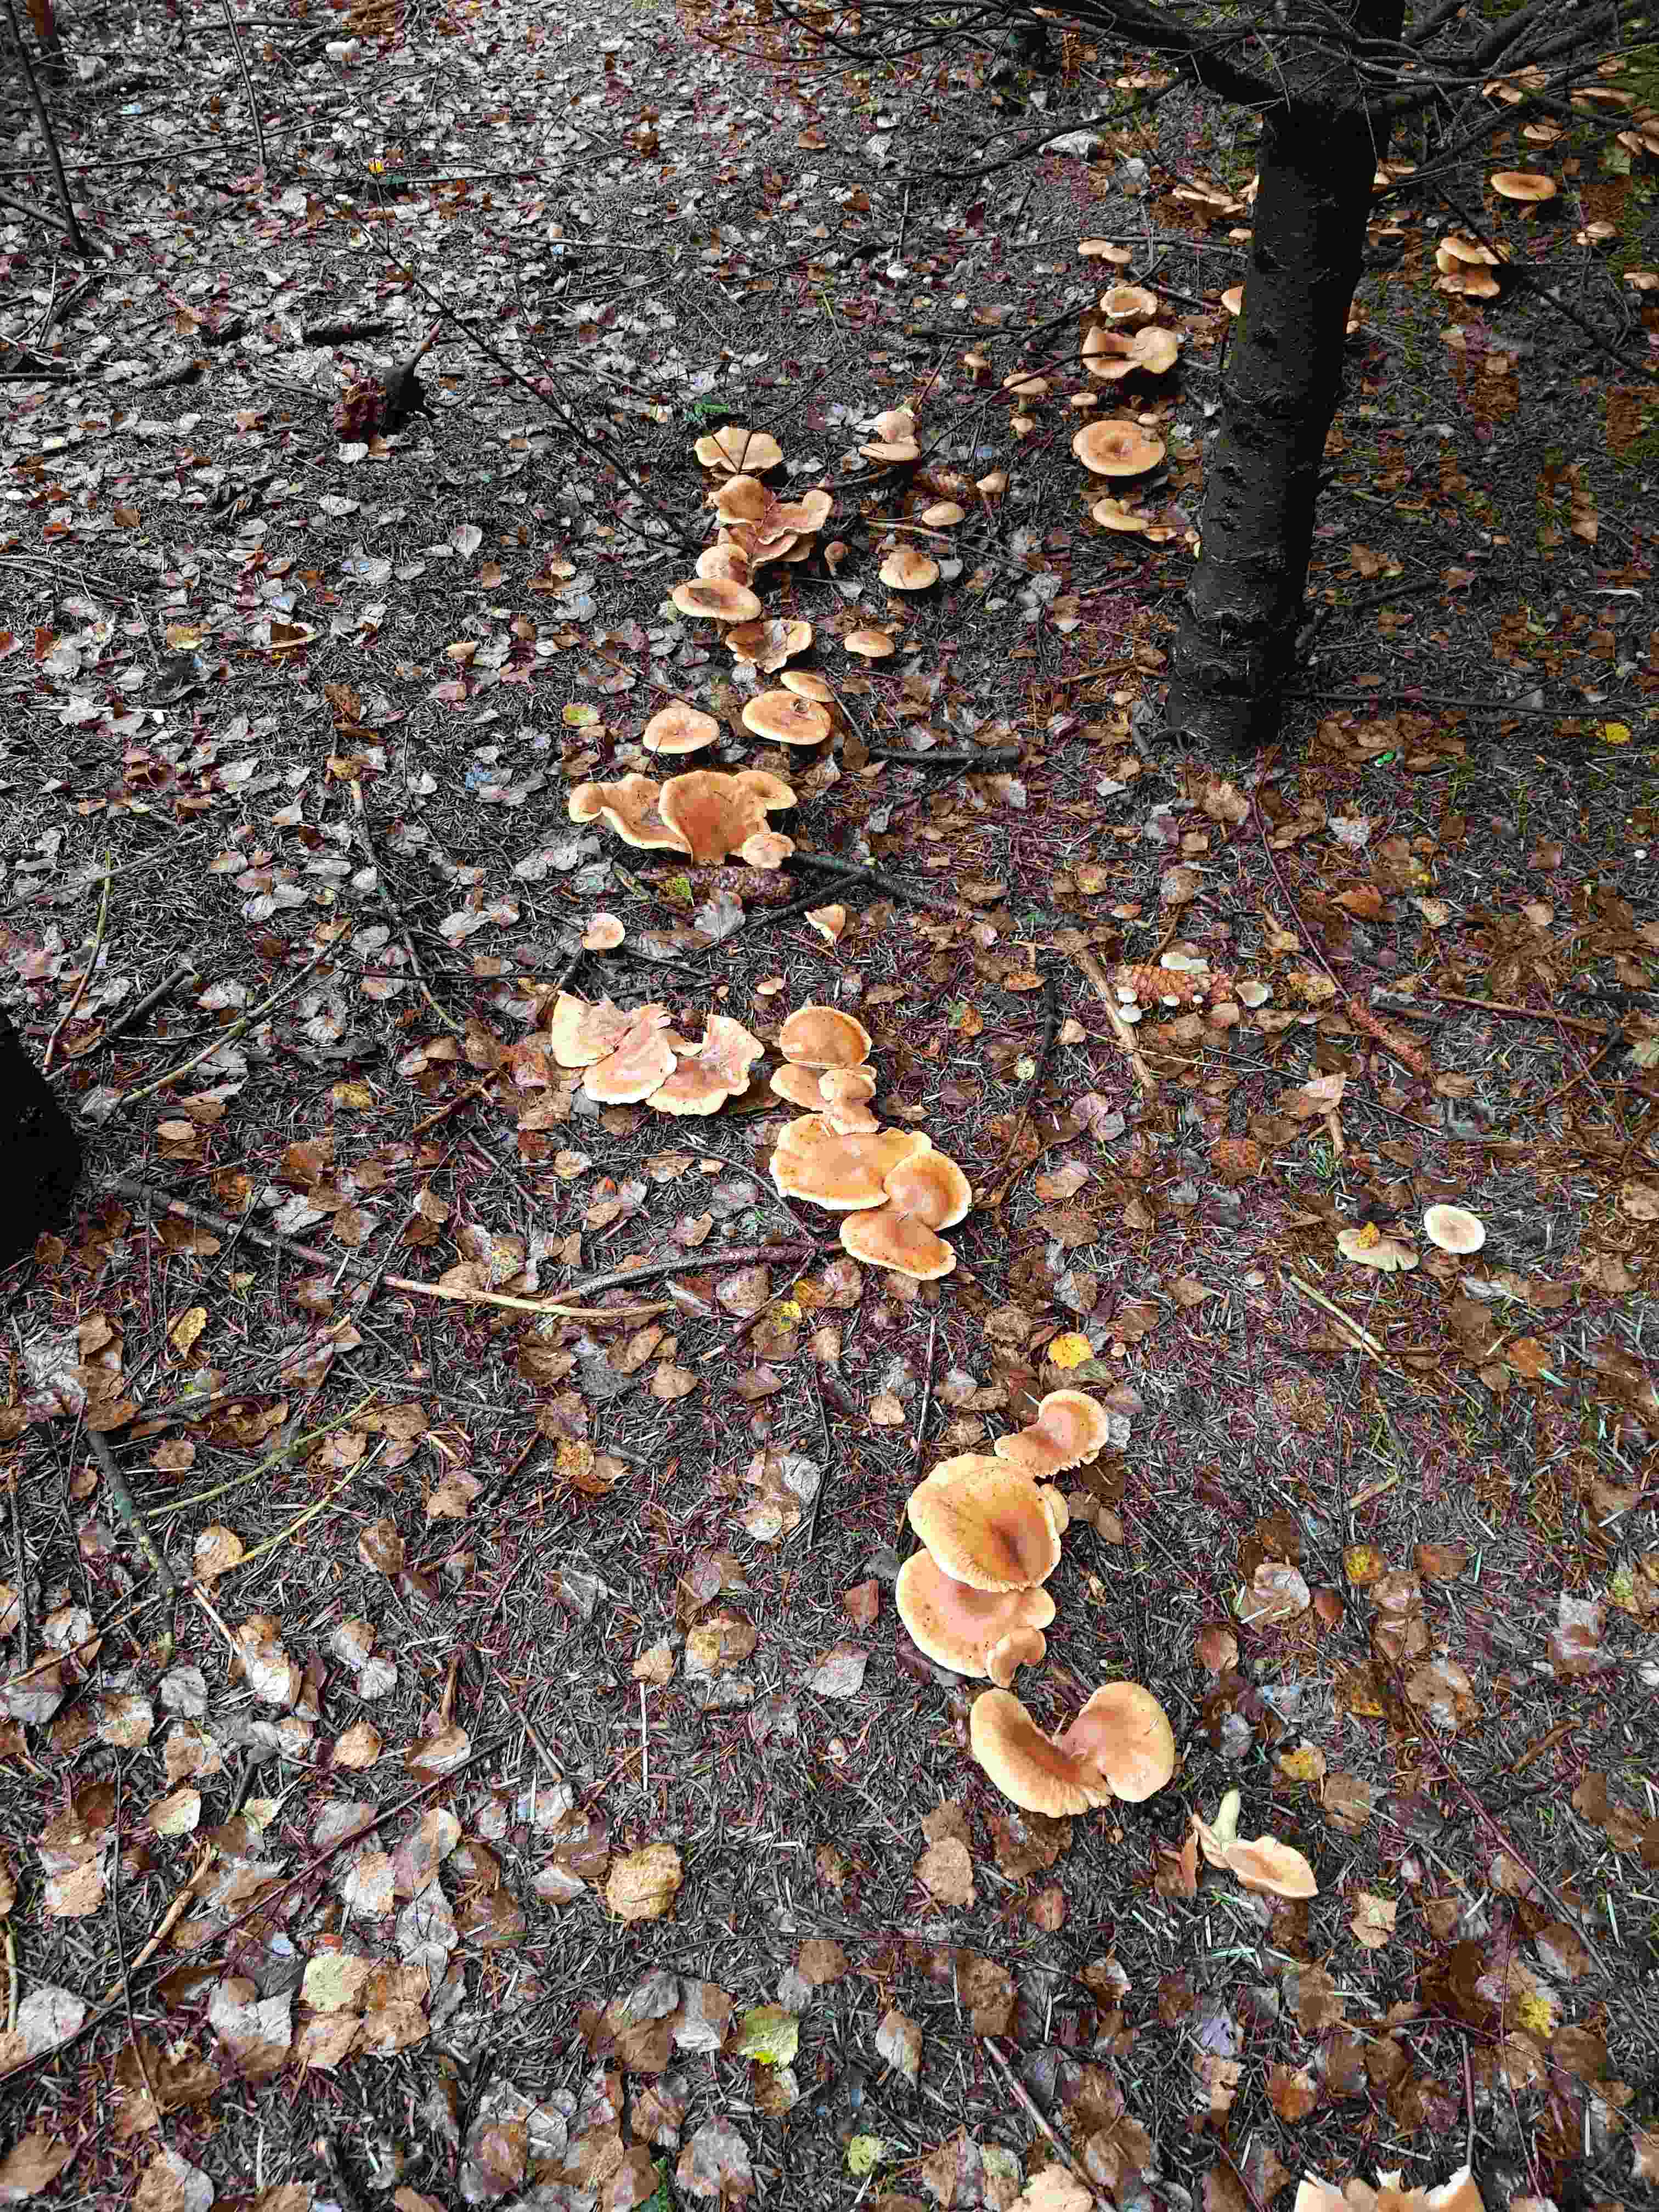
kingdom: Fungi
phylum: Basidiomycota
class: Agaricomycetes
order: Agaricales
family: Tricholomataceae
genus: Paralepista
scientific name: Paralepista flaccida
